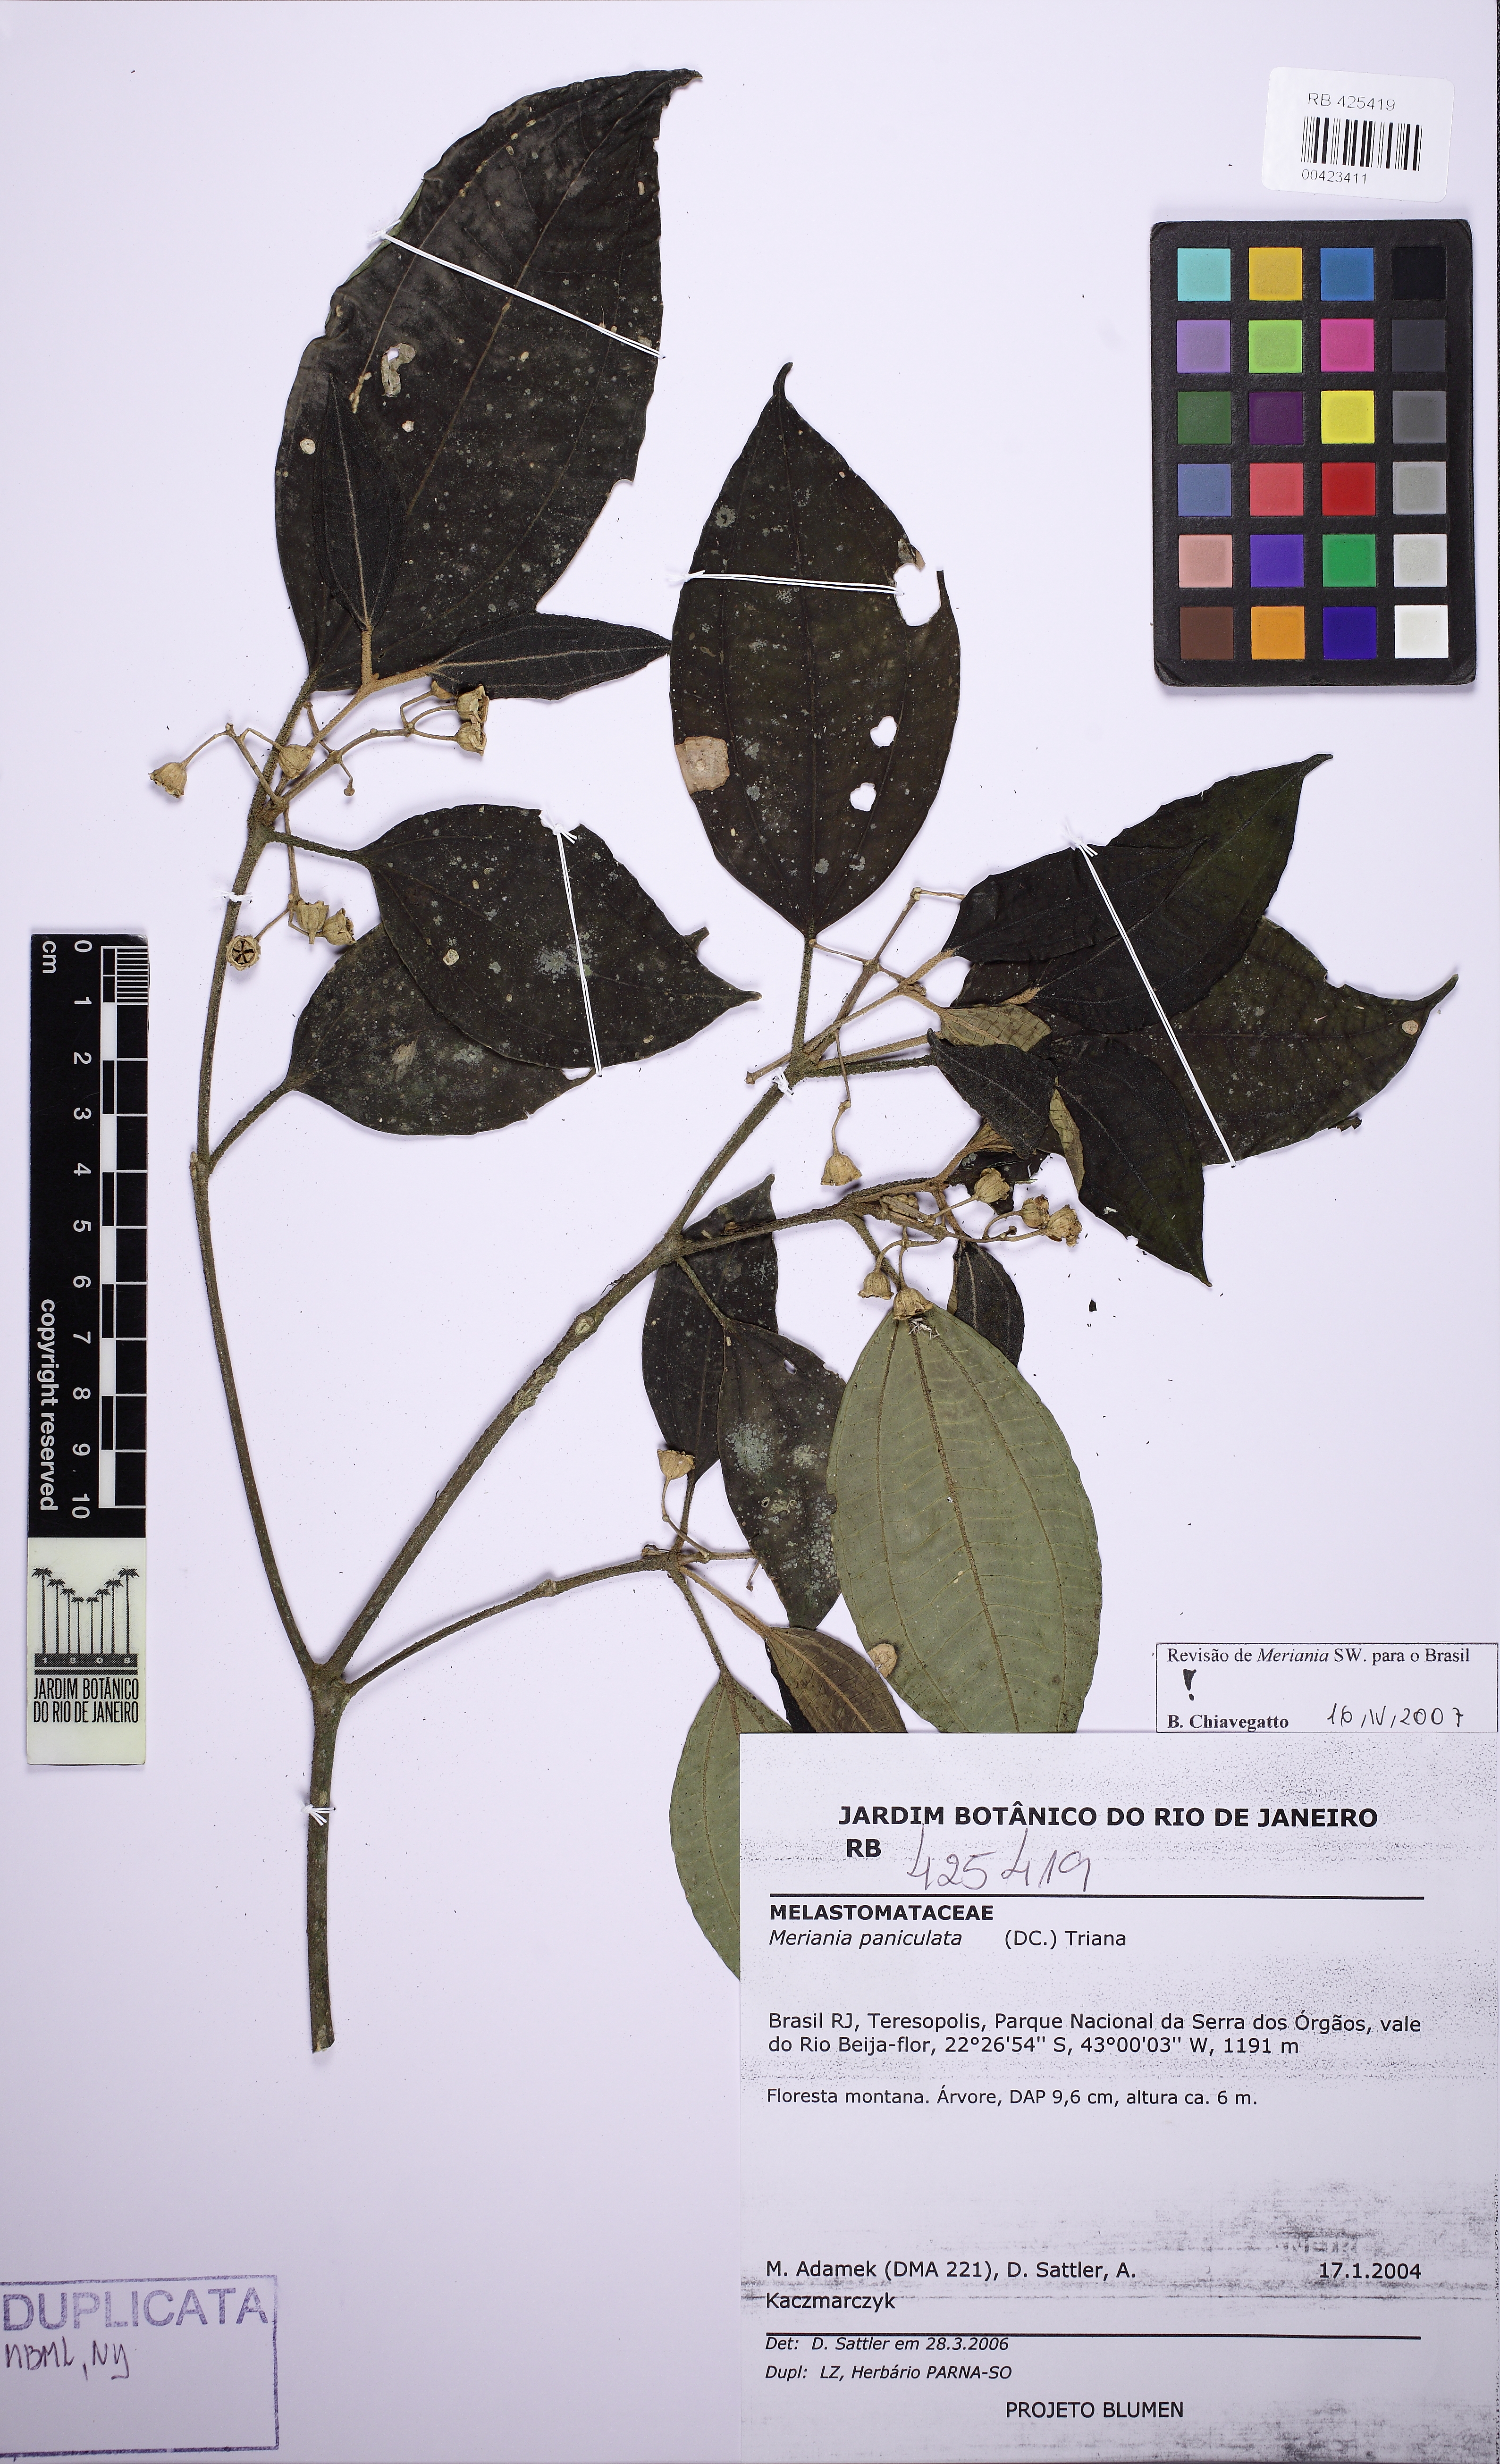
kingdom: Plantae
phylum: Tracheophyta
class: Magnoliopsida
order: Myrtales
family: Melastomataceae
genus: Meriania
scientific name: Meriania paniculata
